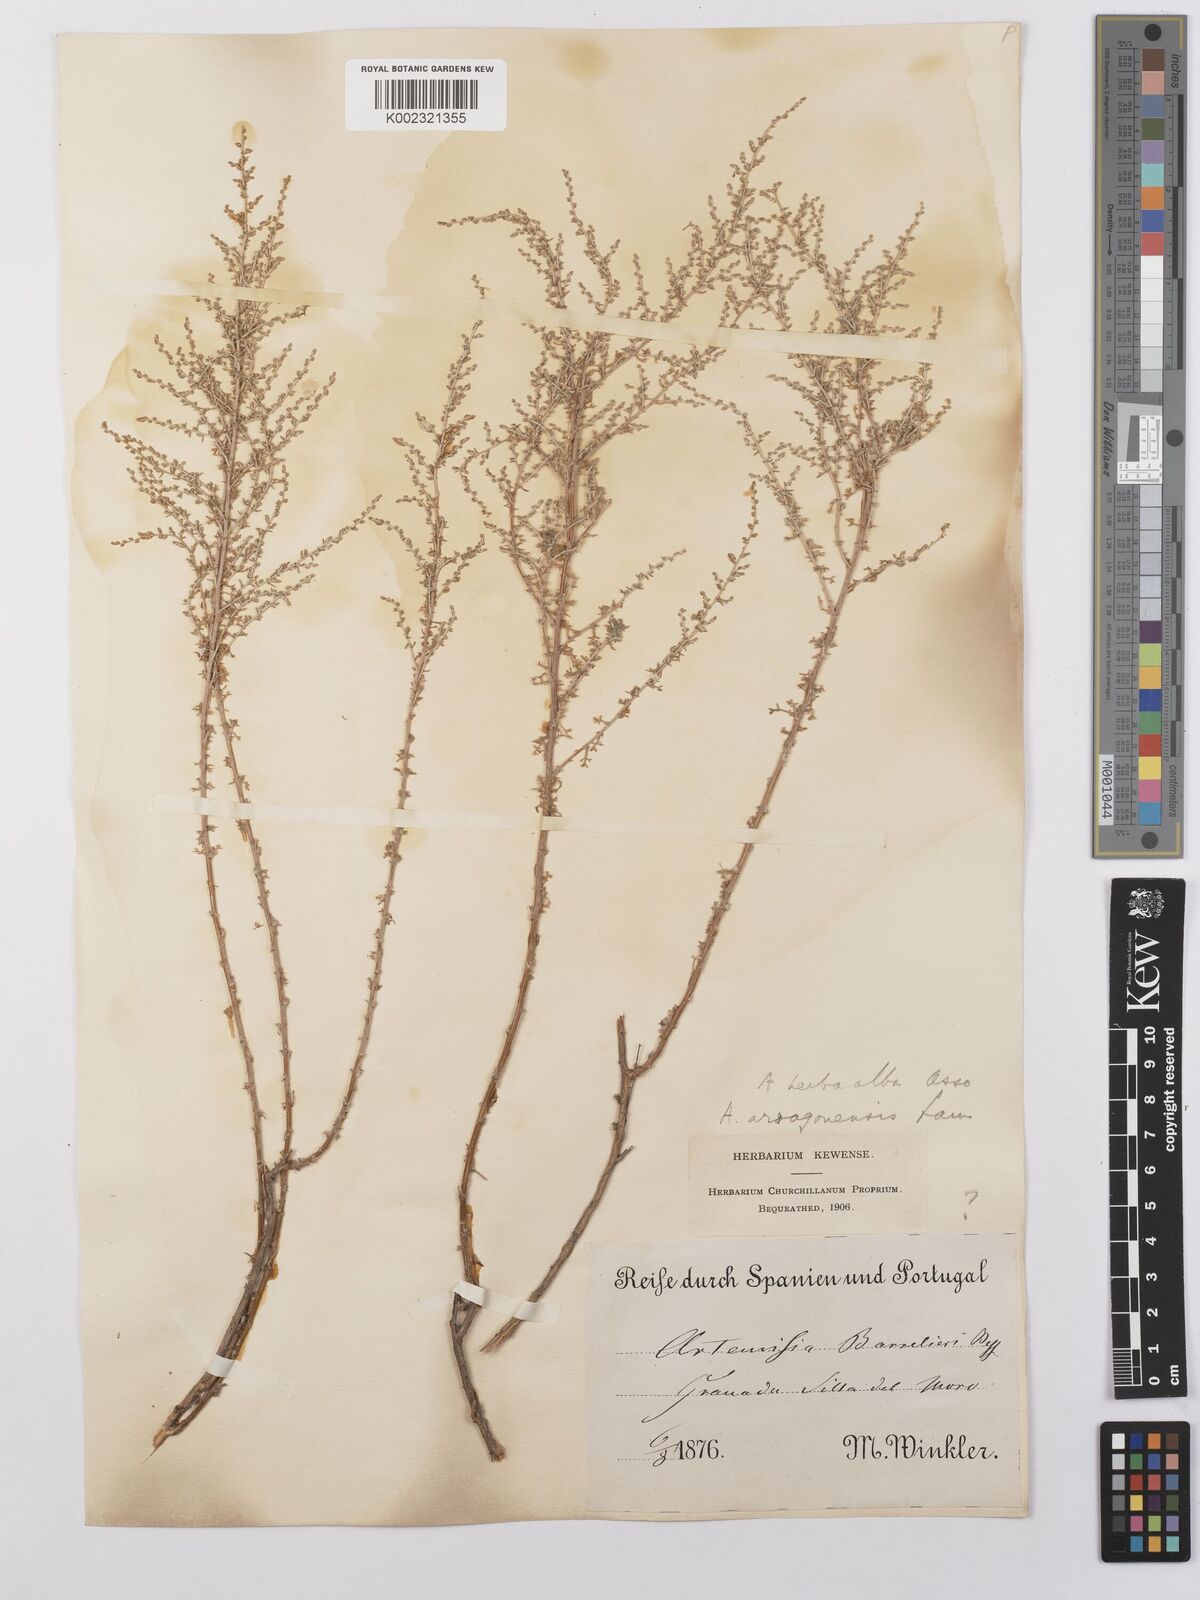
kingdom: Plantae
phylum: Tracheophyta
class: Magnoliopsida
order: Asterales
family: Asteraceae
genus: Artemisia
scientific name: Artemisia herba-alba
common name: White wormwood
